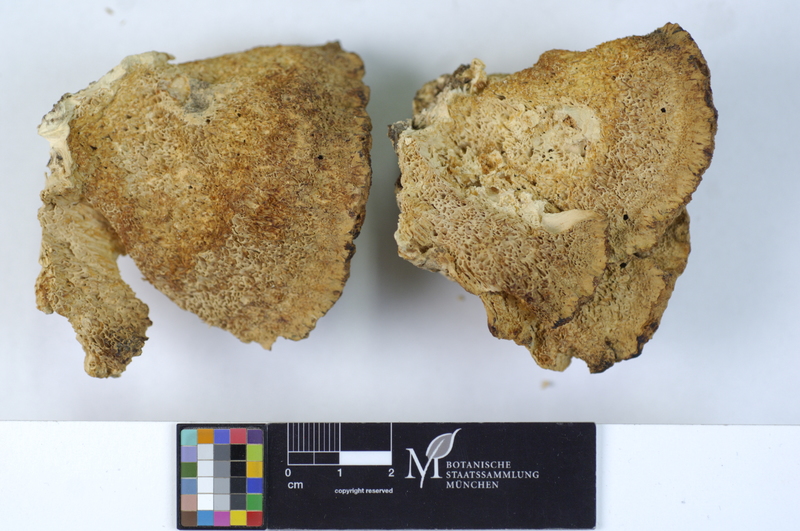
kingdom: Plantae
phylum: Tracheophyta
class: Magnoliopsida
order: Fagales
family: Fagaceae
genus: Fagus
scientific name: Fagus sylvatica
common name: Beech
